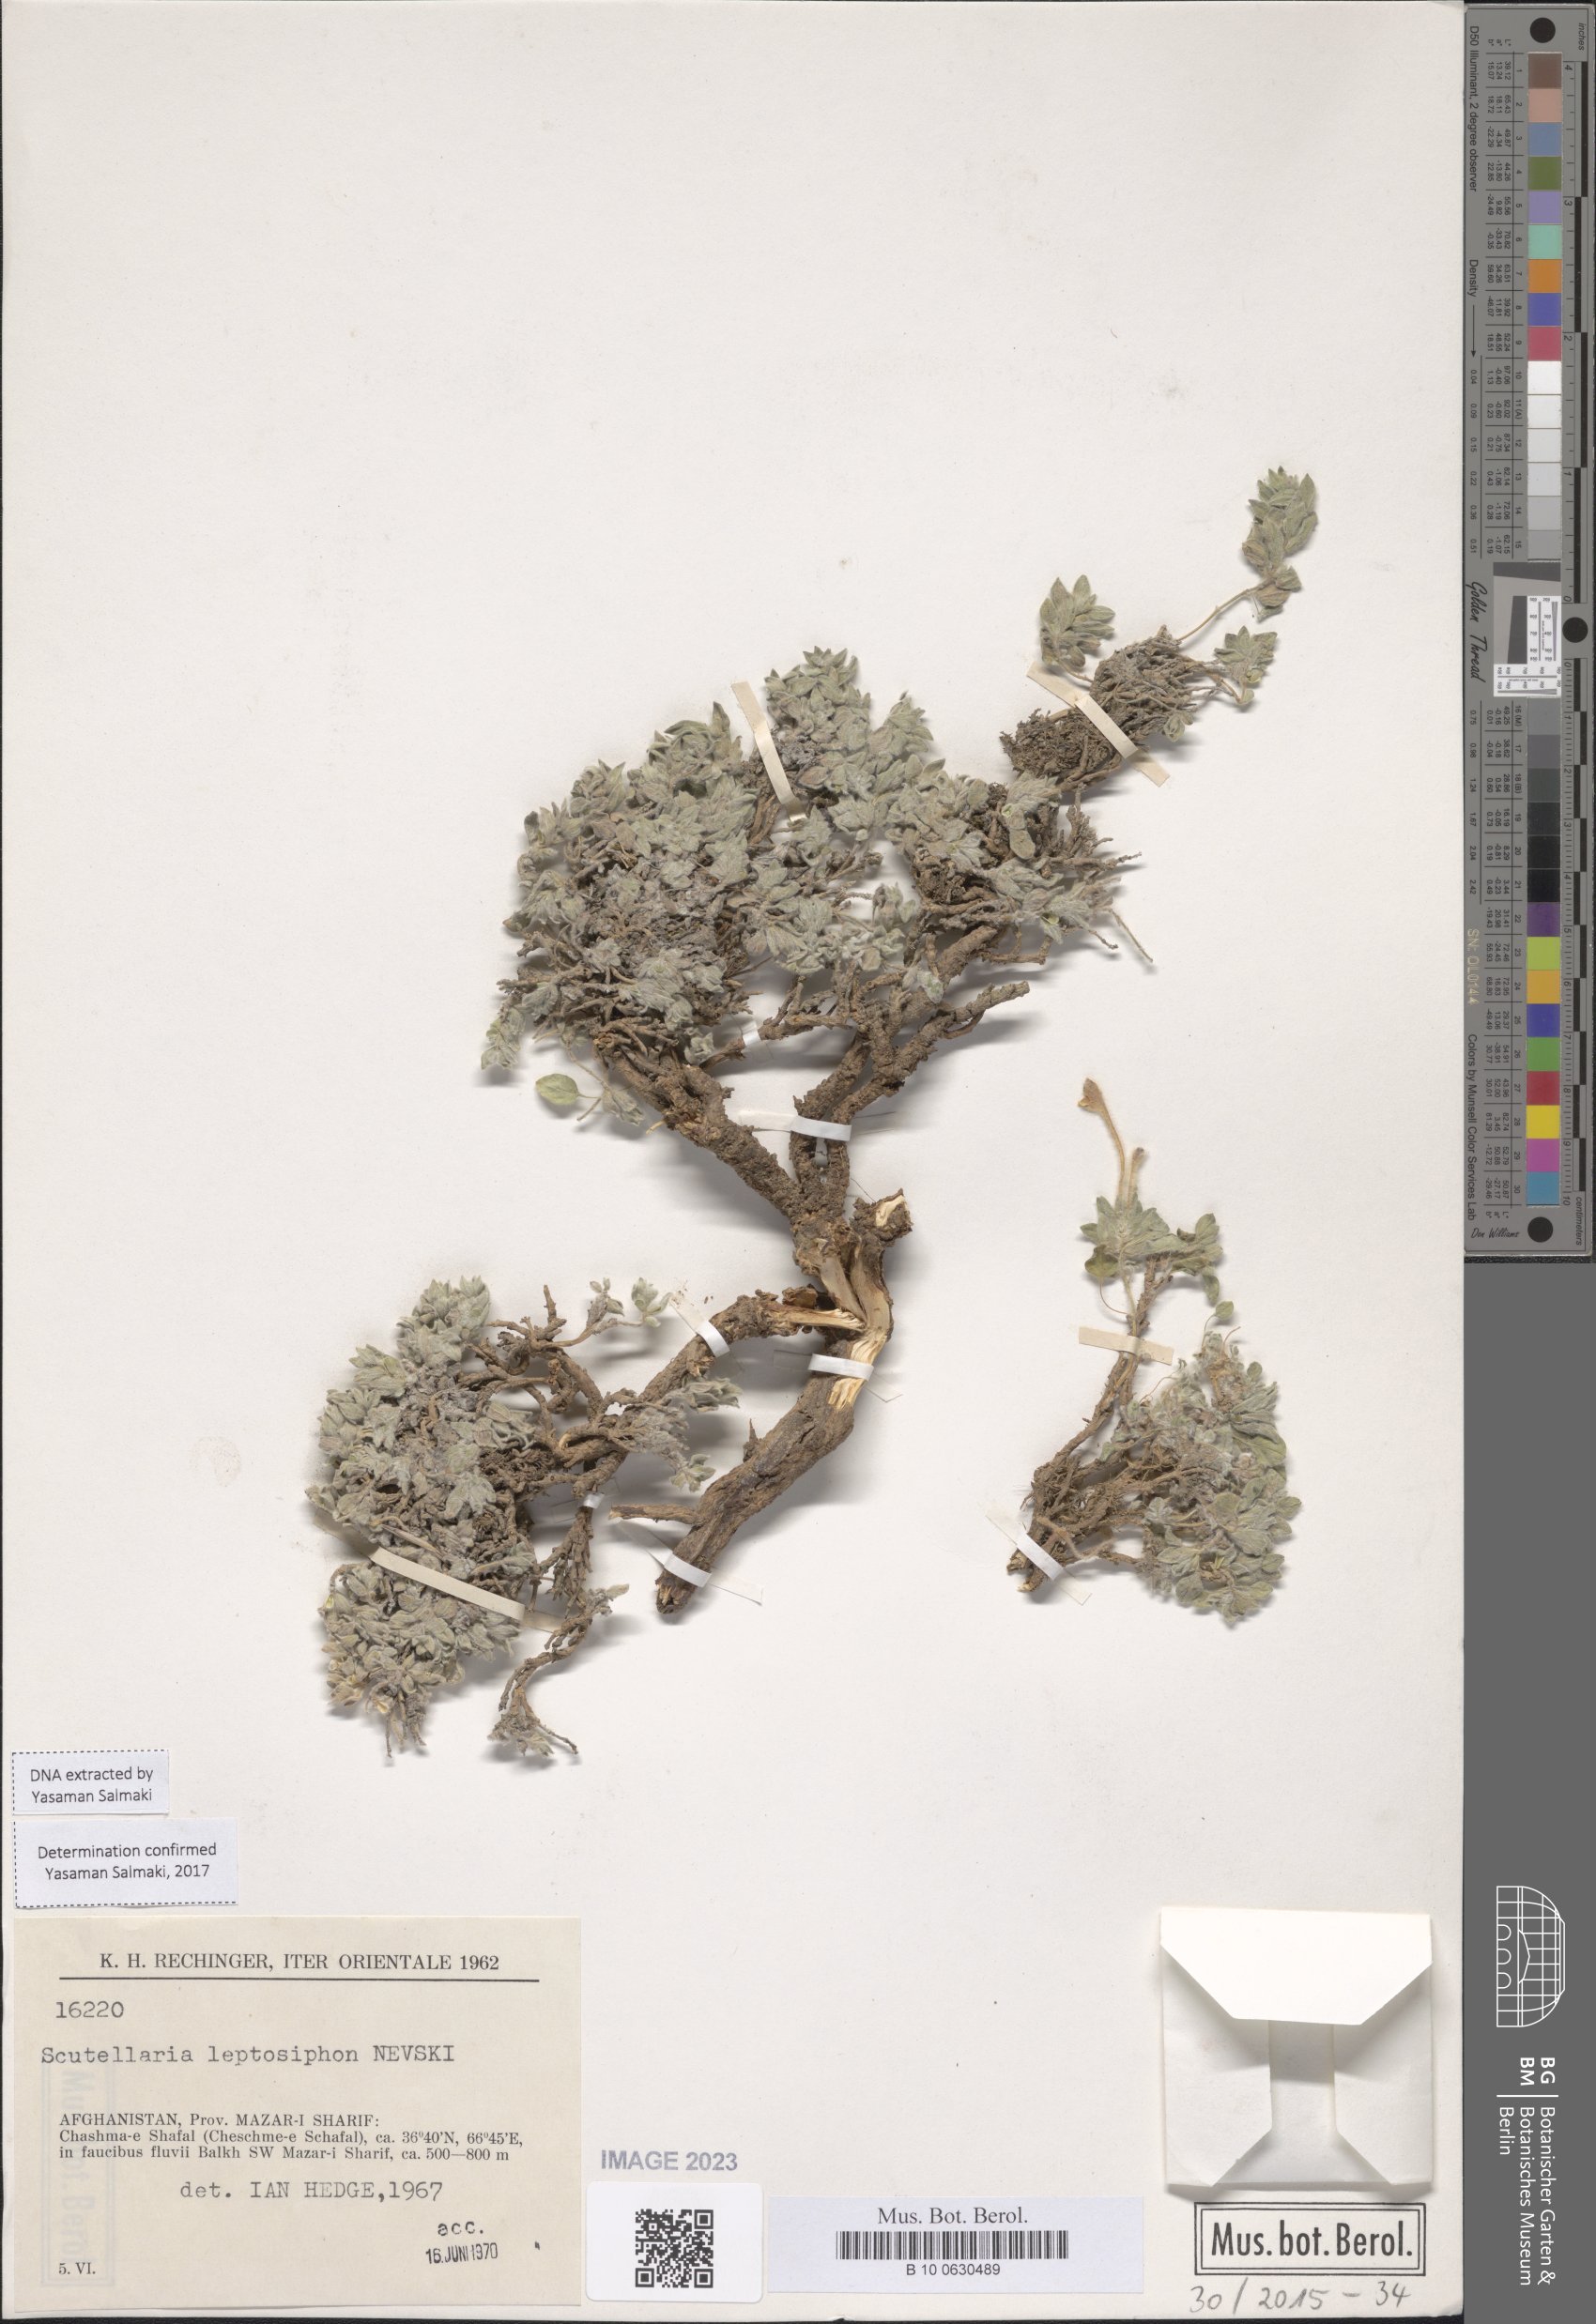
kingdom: Plantae
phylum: Tracheophyta
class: Magnoliopsida
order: Lamiales
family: Lamiaceae
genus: Scutellaria
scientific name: Scutellaria leptosiphon
